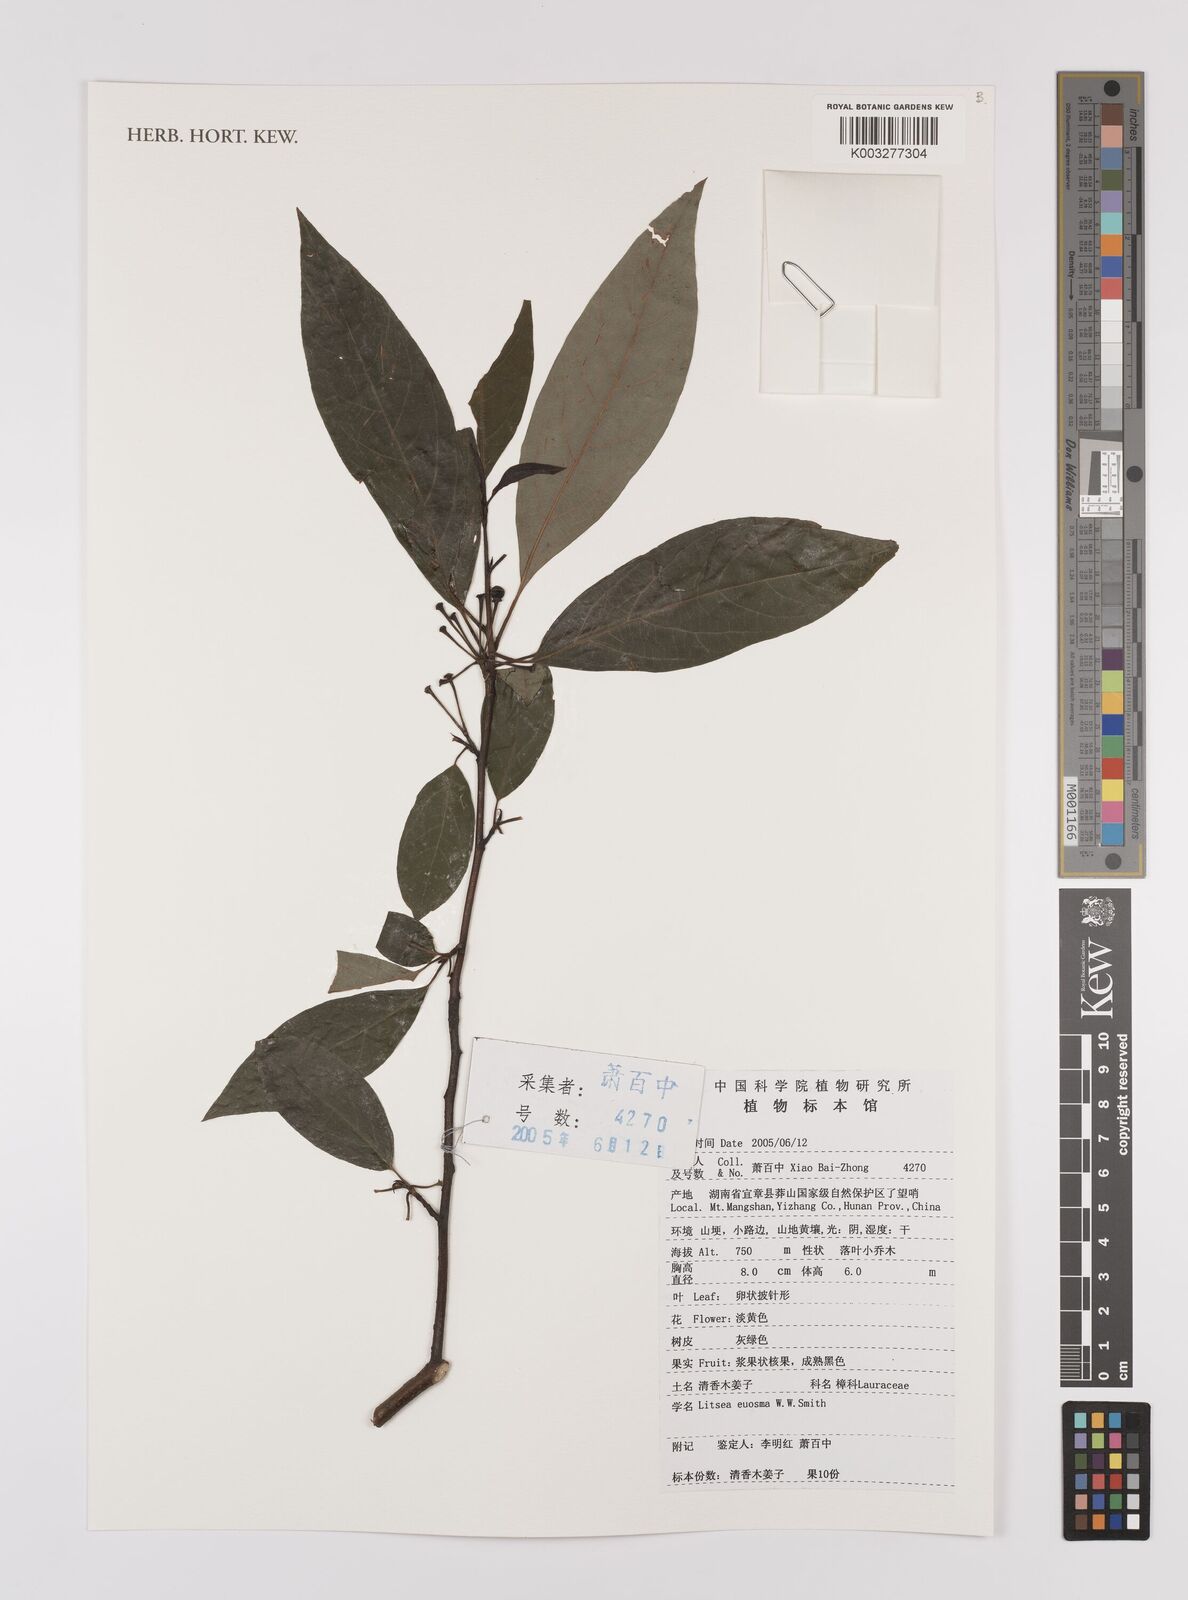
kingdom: Plantae
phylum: Tracheophyta
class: Magnoliopsida
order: Laurales
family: Lauraceae
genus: Litsea
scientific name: Litsea euosma
